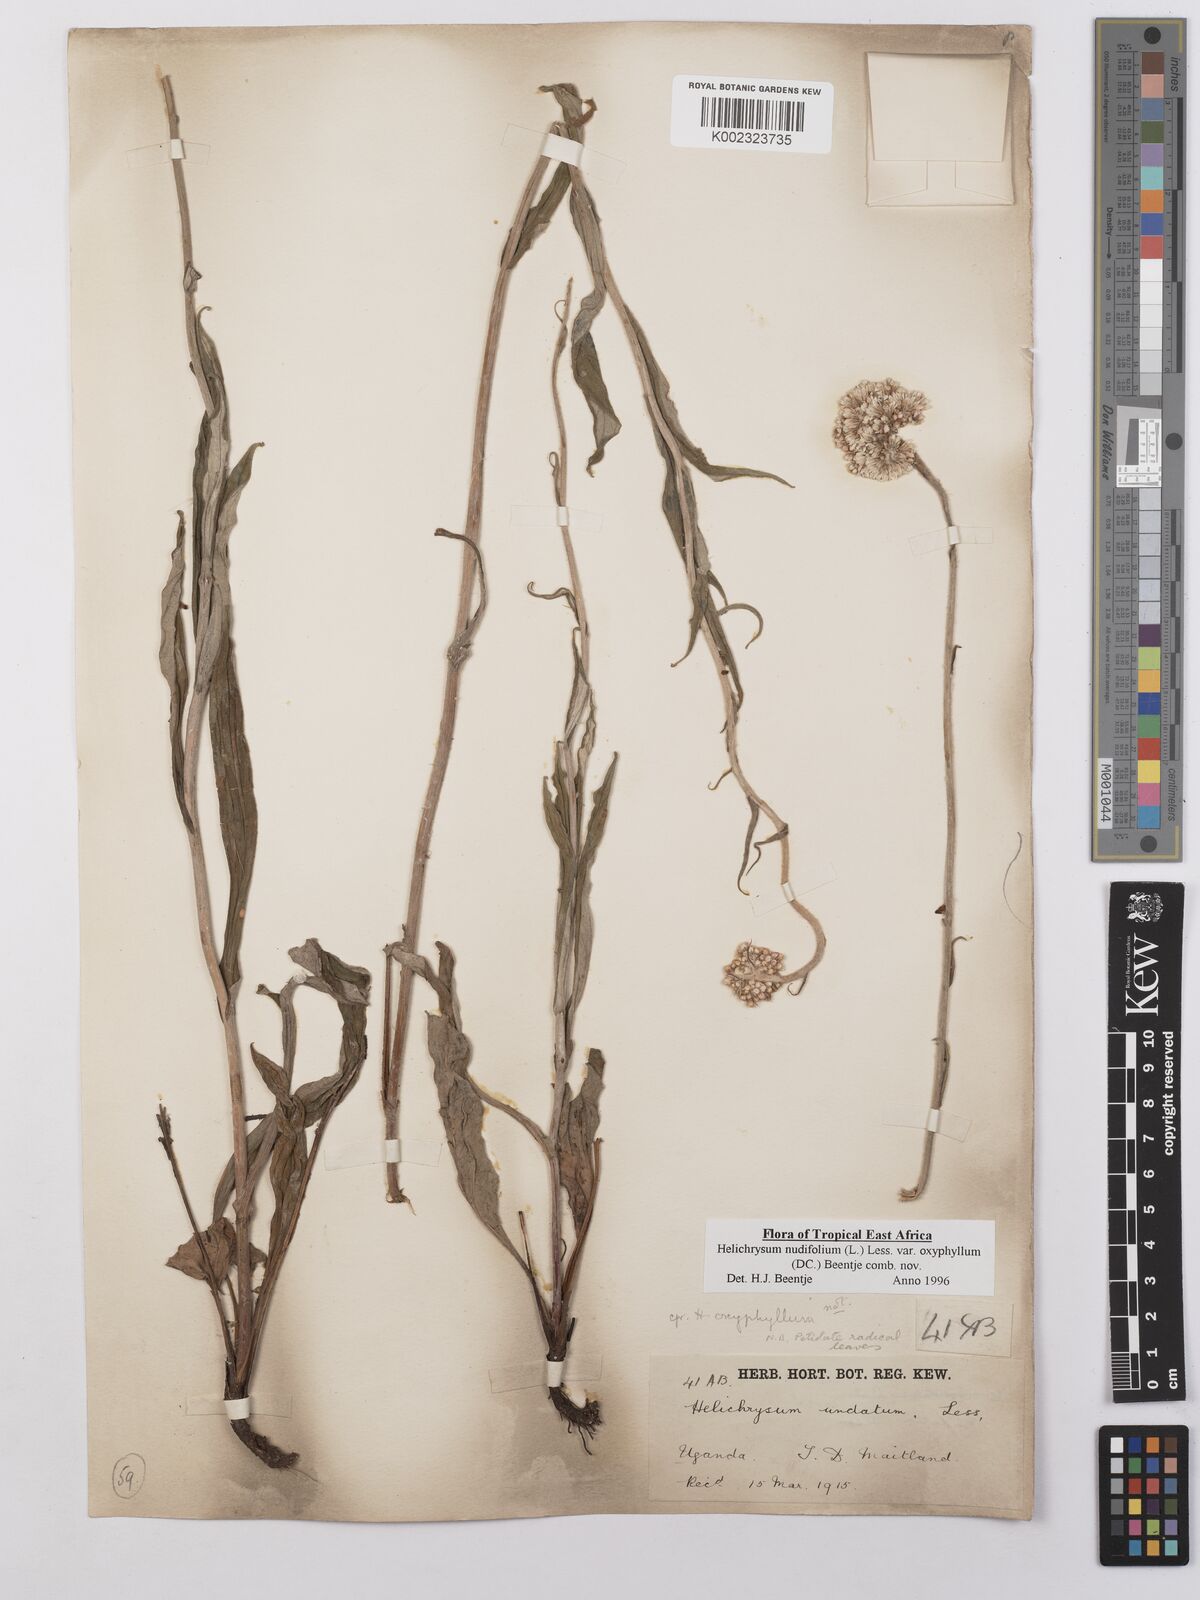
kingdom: Plantae
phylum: Tracheophyta
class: Magnoliopsida
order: Asterales
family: Asteraceae
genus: Helichrysum
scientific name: Helichrysum nudifolium
